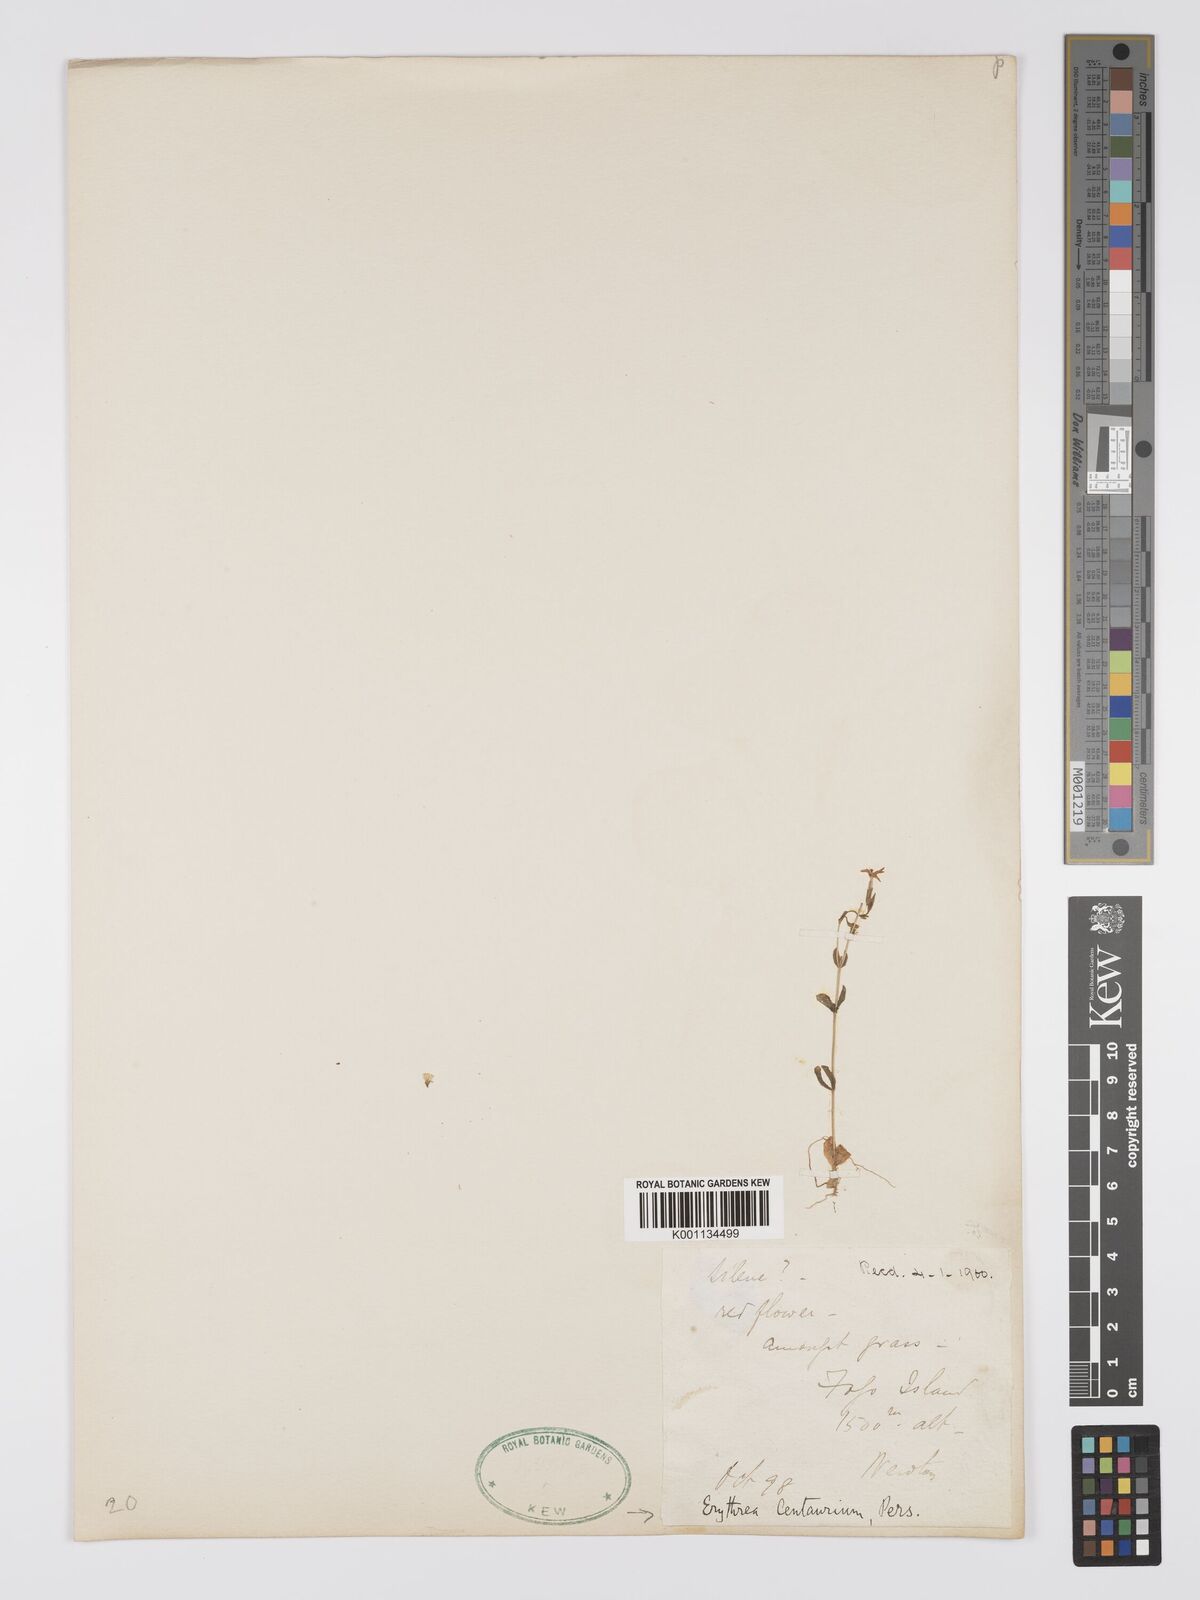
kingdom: Plantae
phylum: Tracheophyta
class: Magnoliopsida
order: Gentianales
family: Gentianaceae
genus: Centaurium
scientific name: Centaurium
